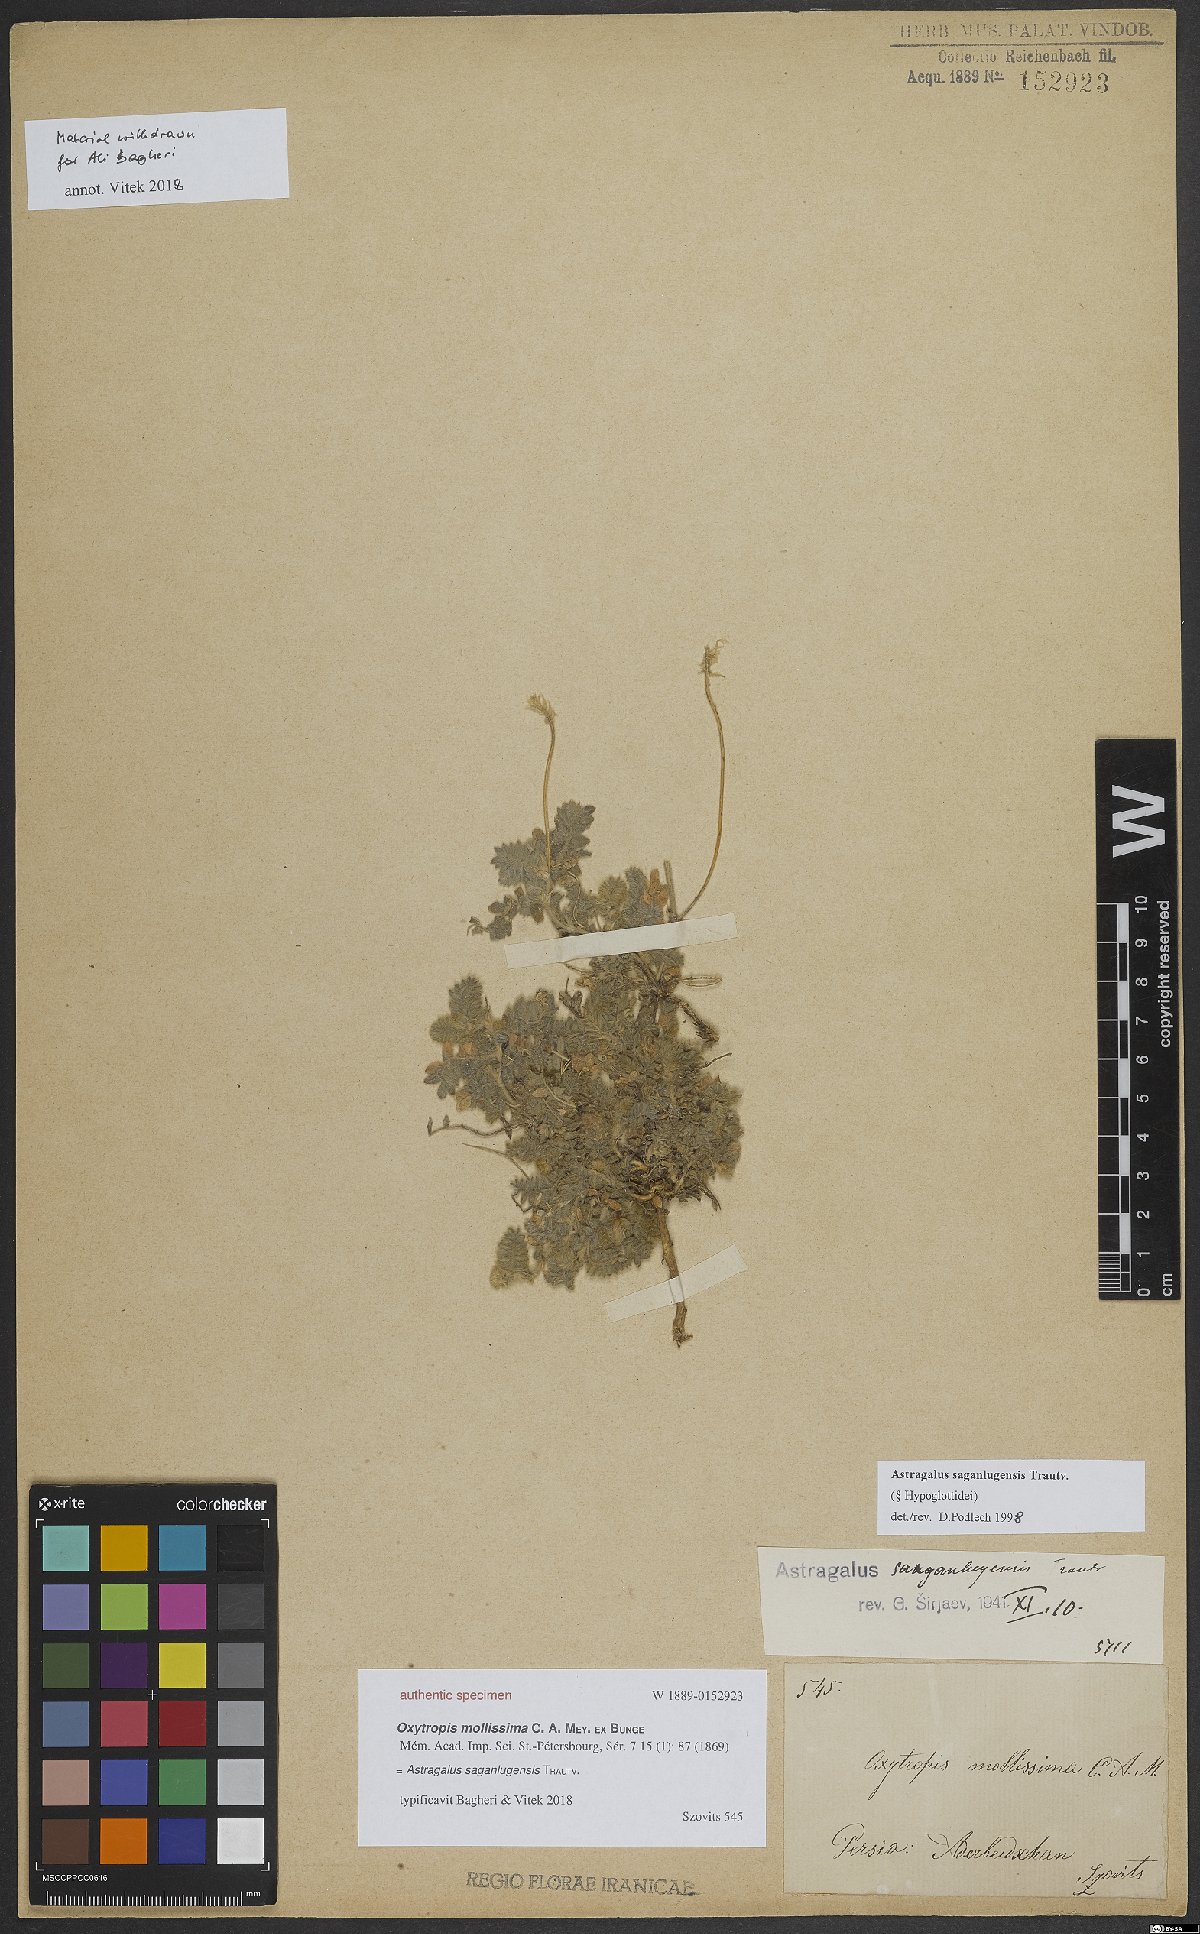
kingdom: Plantae
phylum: Tracheophyta
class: Magnoliopsida
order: Fabales
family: Fabaceae
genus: Astragalus
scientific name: Astragalus saganlugensis
